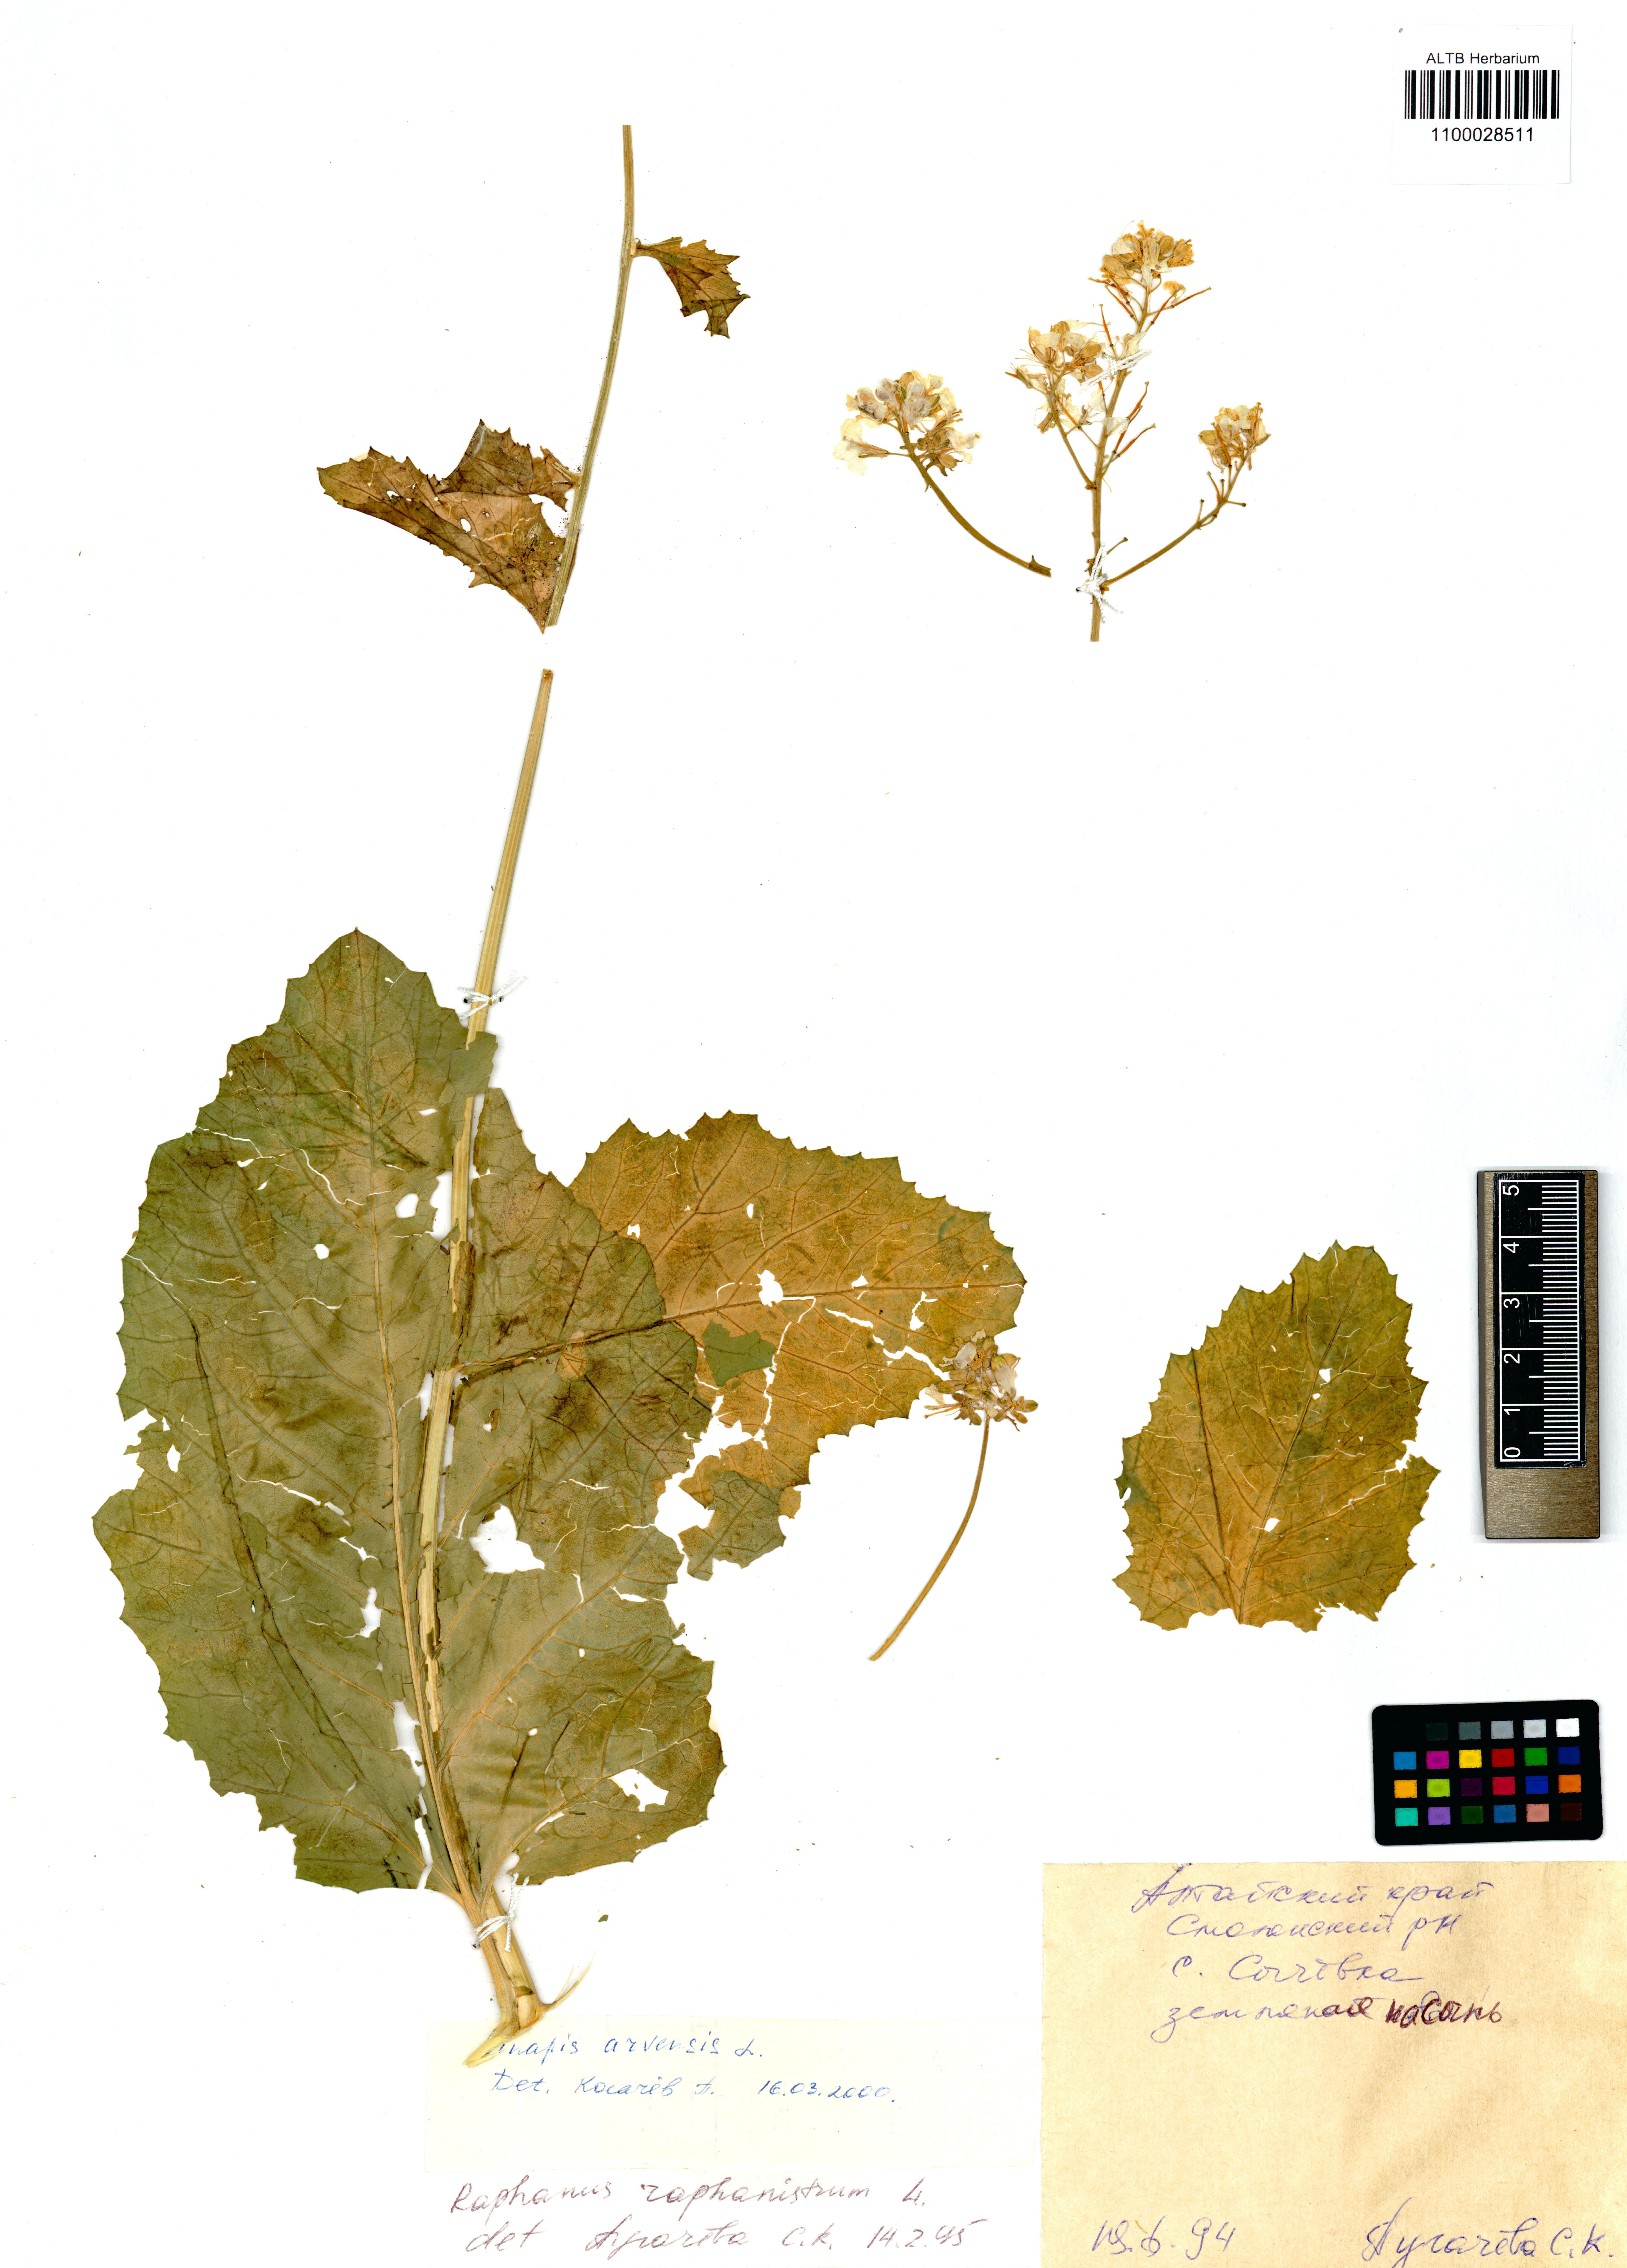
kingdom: Plantae
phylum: Tracheophyta
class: Magnoliopsida
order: Brassicales
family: Brassicaceae
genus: Sinapis
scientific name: Sinapis arvensis
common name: Charlock
